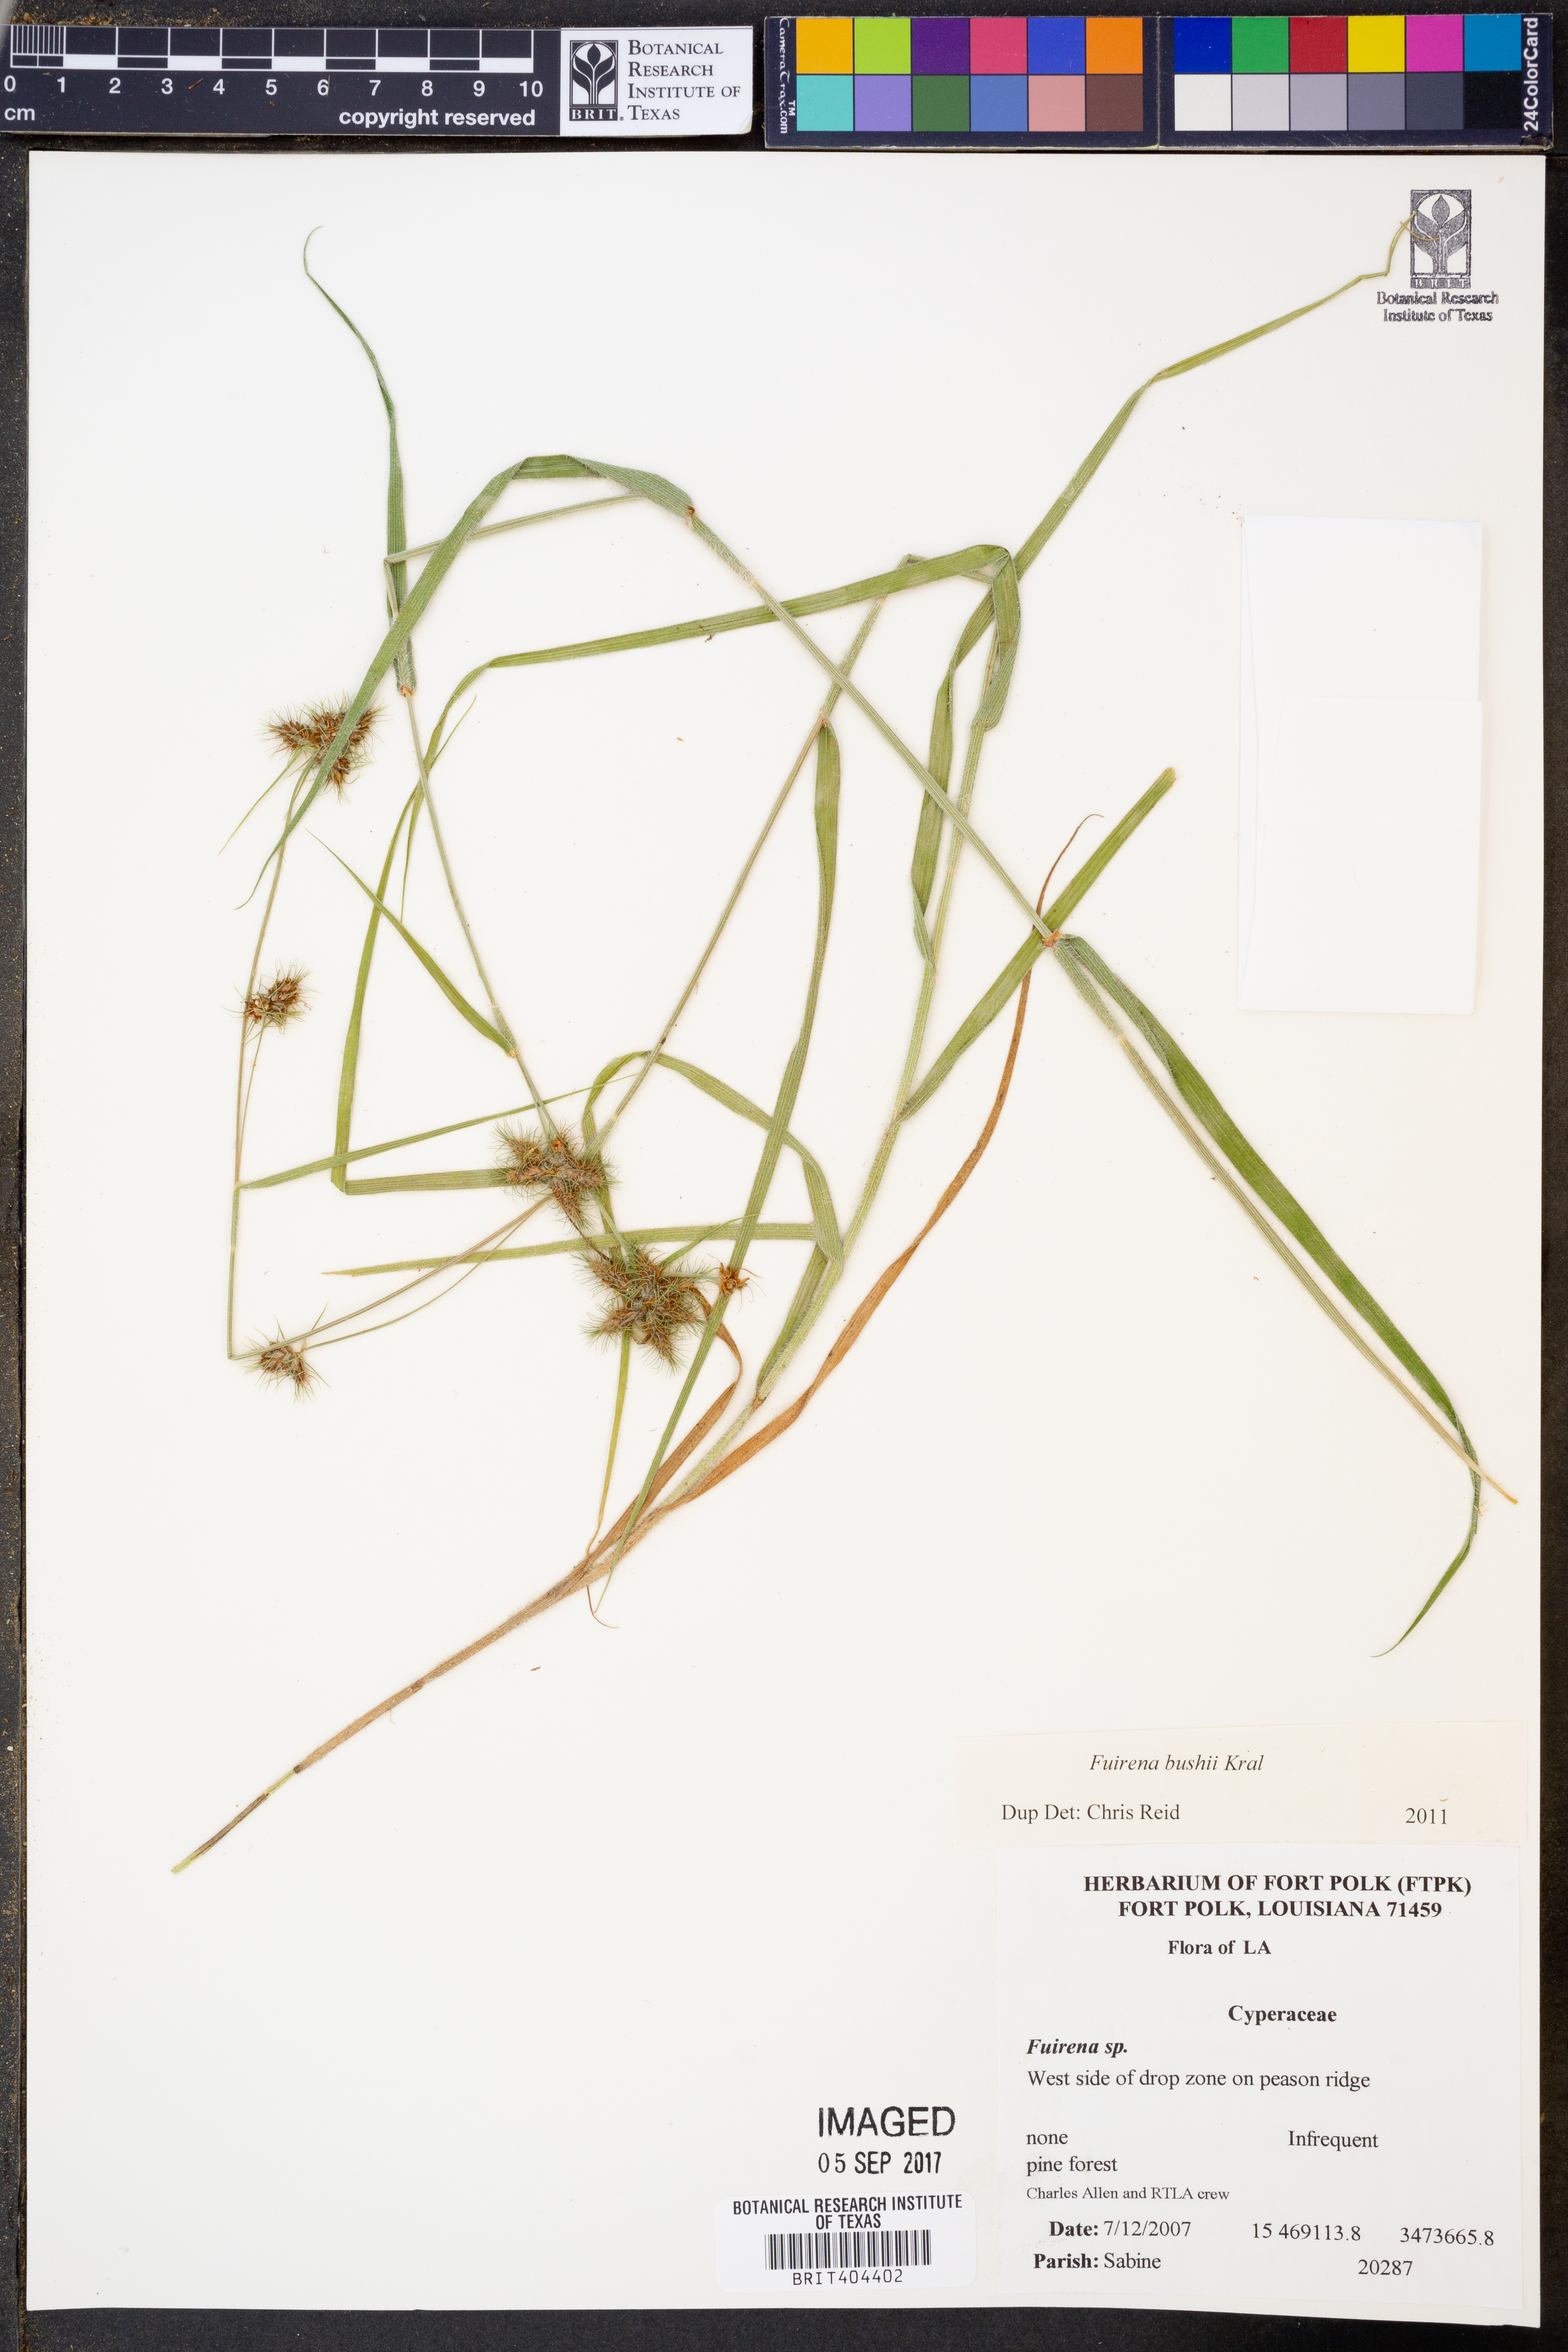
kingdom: Plantae
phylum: Tracheophyta
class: Liliopsida
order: Poales
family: Cyperaceae
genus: Fuirena
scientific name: Fuirena bushii
